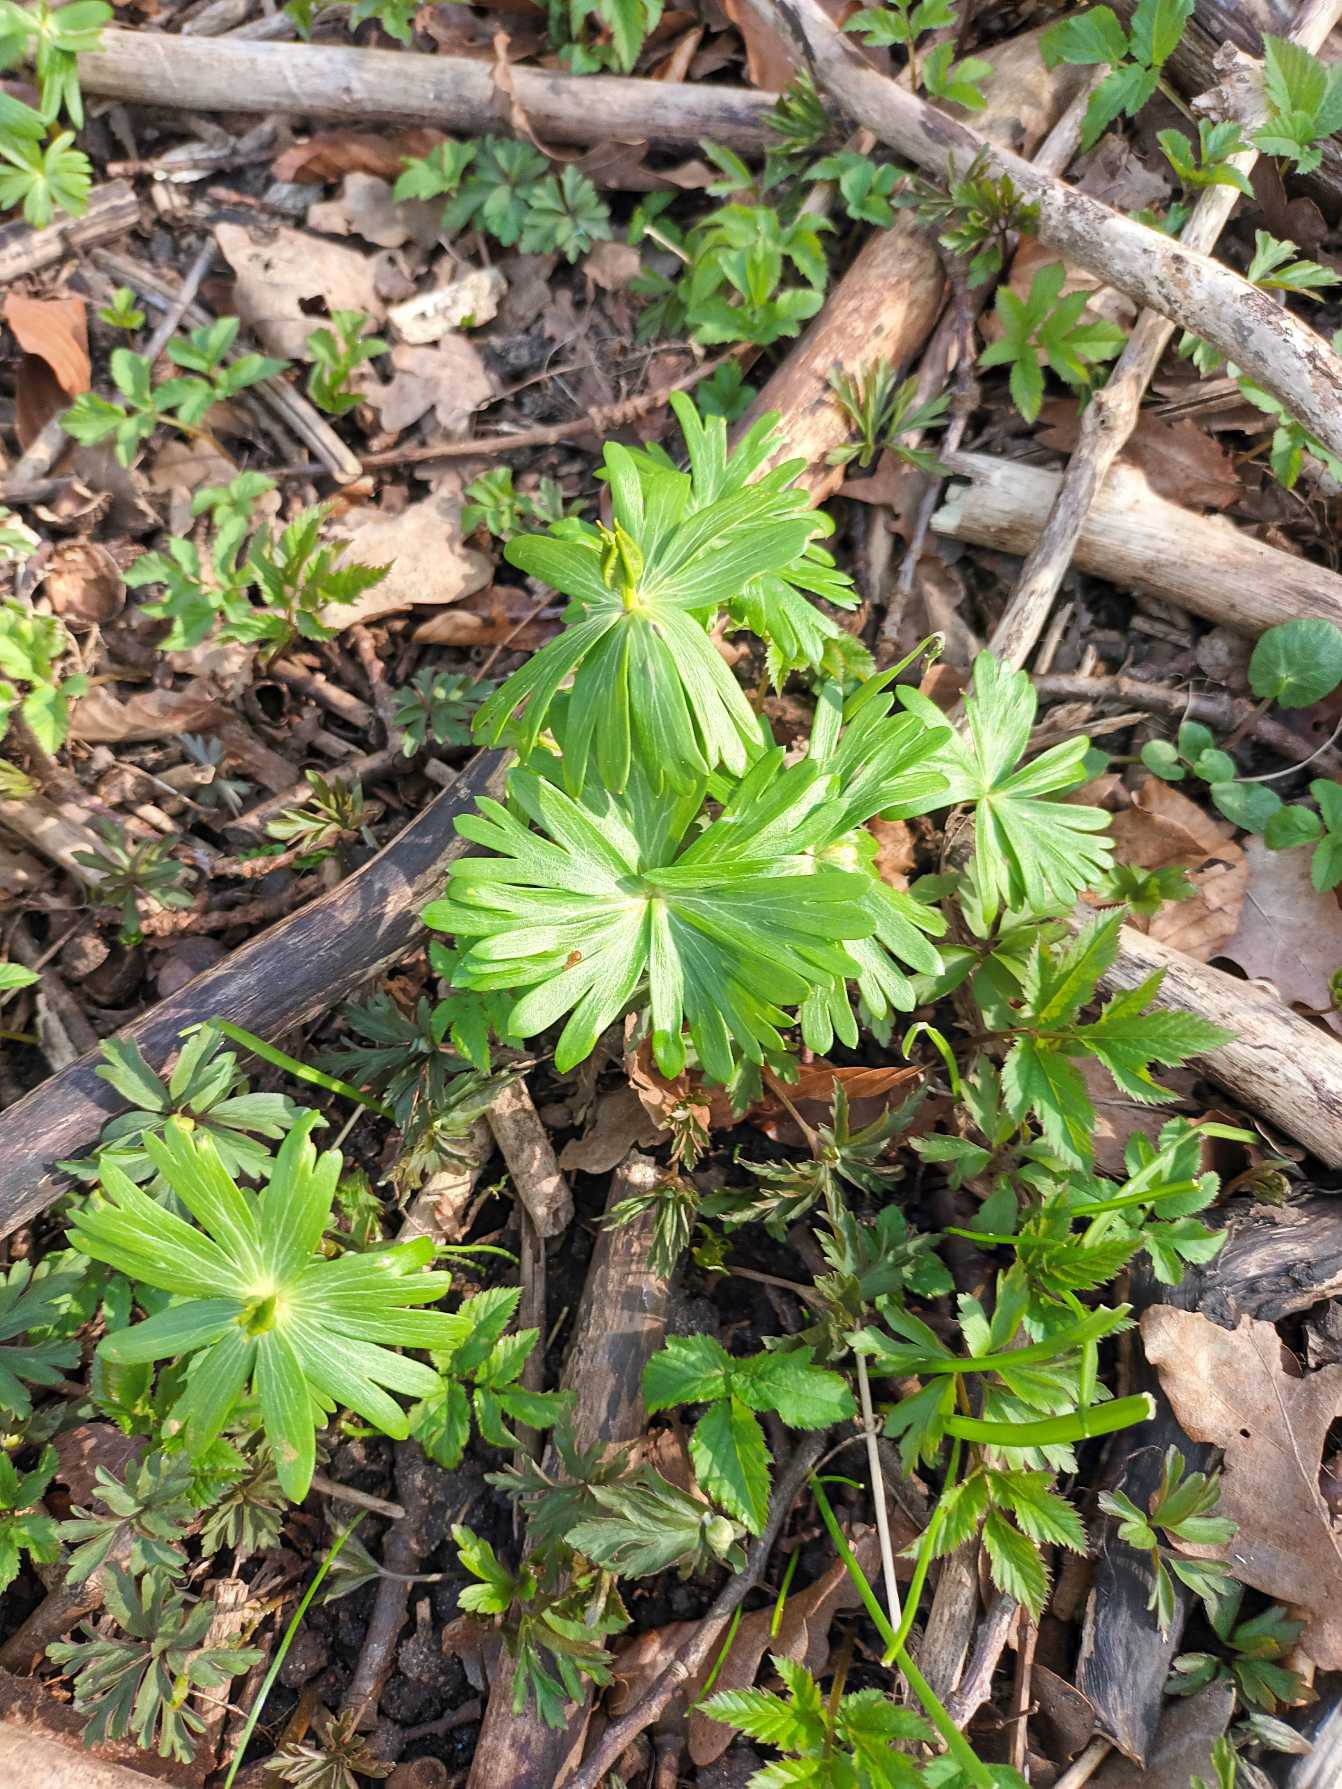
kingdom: Plantae
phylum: Tracheophyta
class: Magnoliopsida
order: Ranunculales
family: Ranunculaceae
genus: Eranthis
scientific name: Eranthis hyemalis
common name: Erantis
